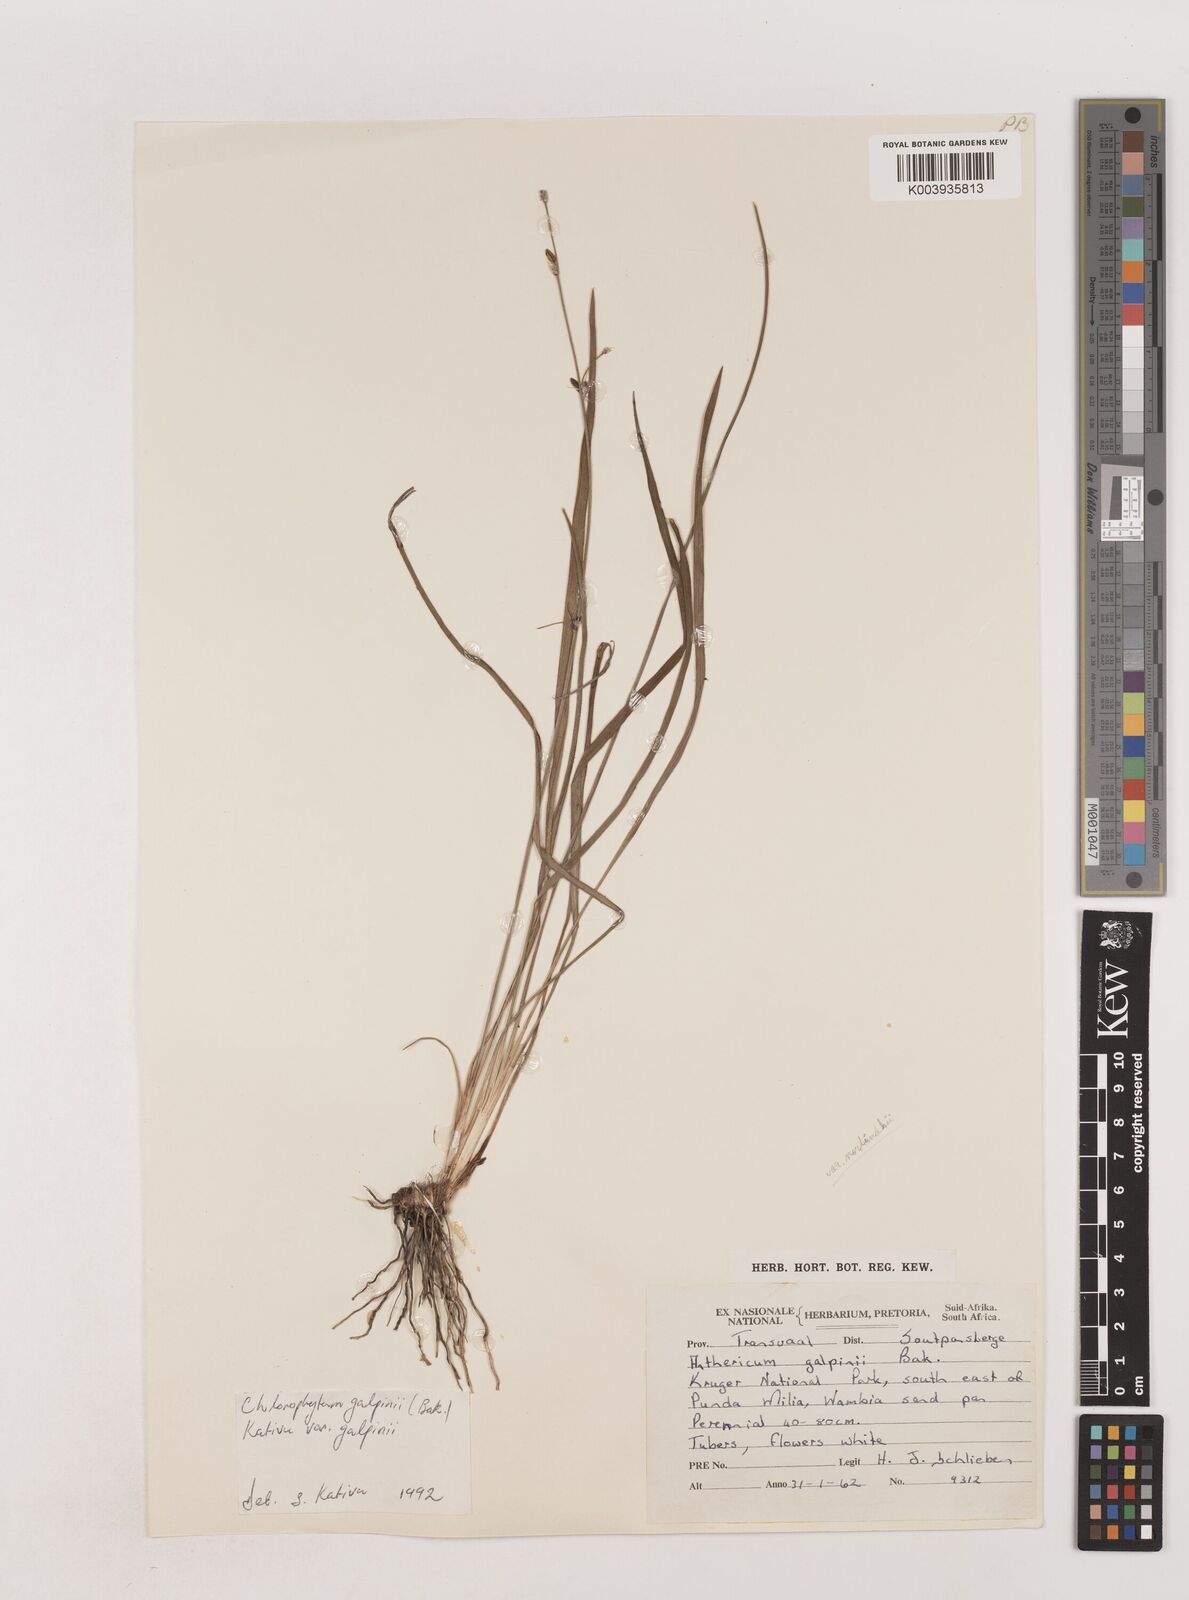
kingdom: Plantae
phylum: Tracheophyta
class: Liliopsida
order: Asparagales
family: Asparagaceae
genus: Chlorophytum
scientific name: Chlorophytum galpinii
